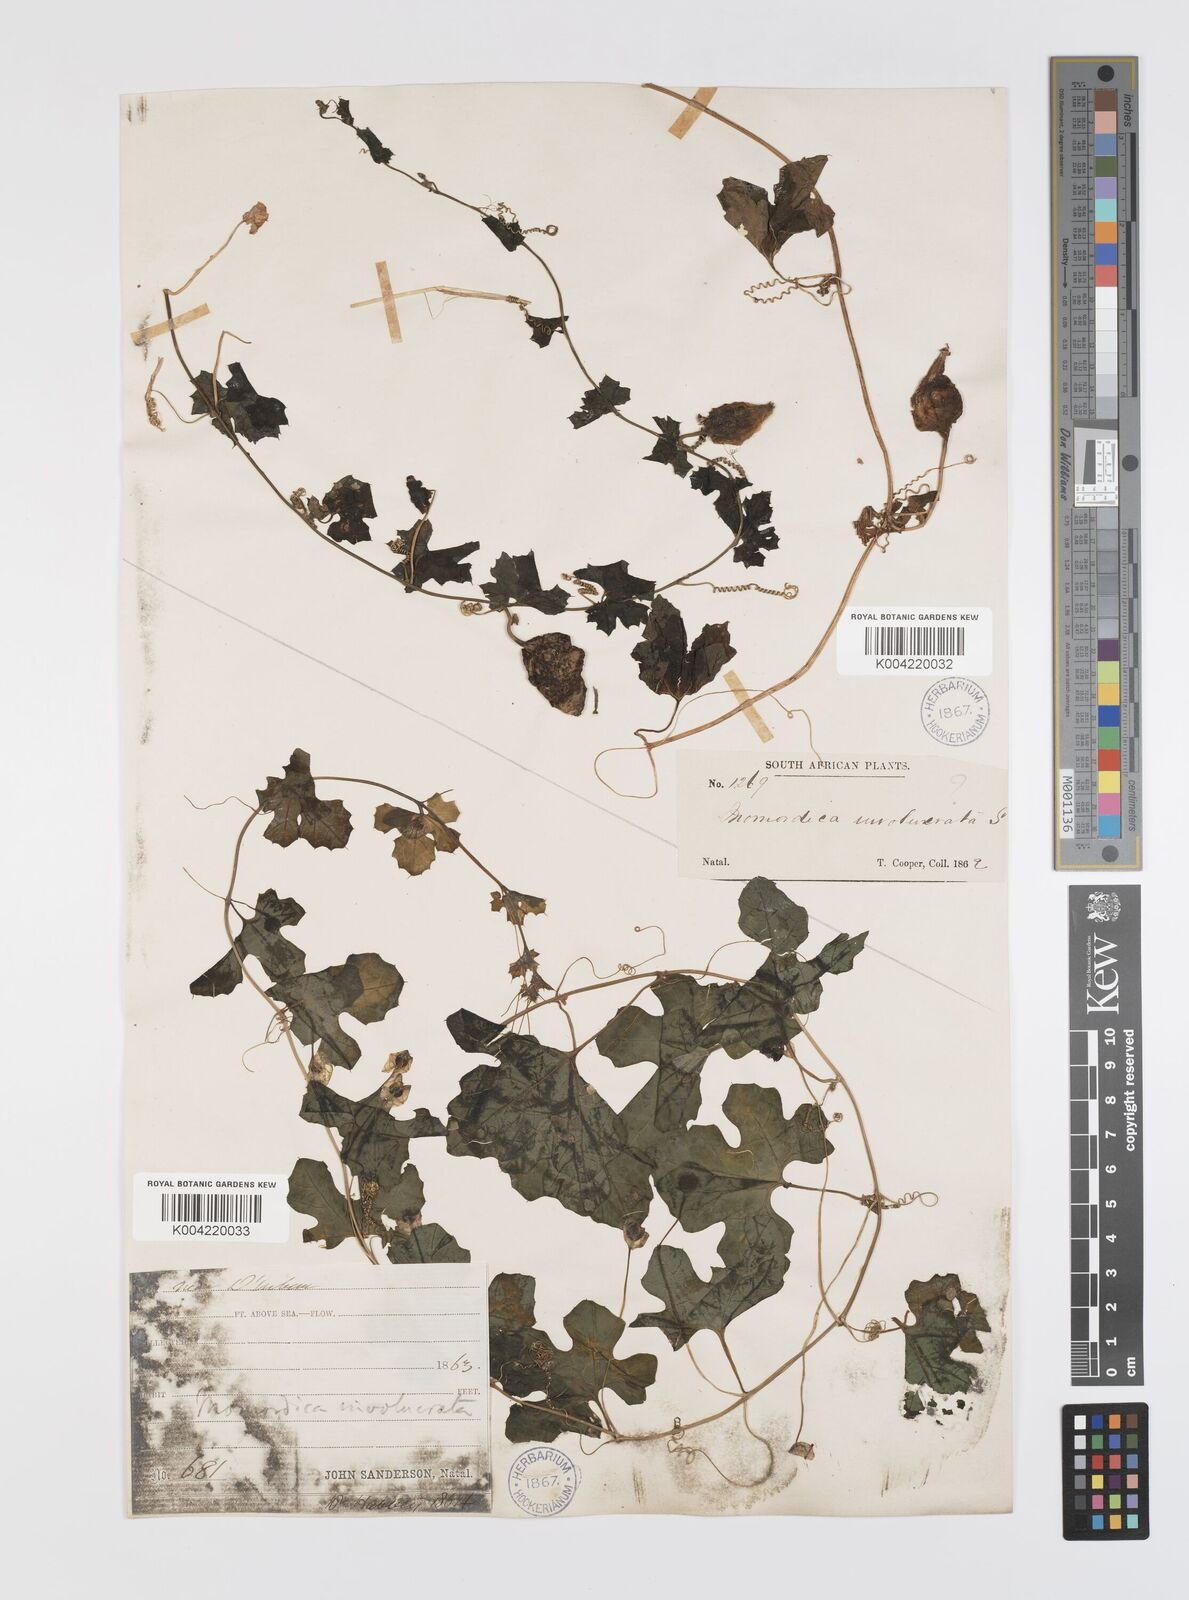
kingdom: Plantae
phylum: Tracheophyta
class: Magnoliopsida
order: Cucurbitales
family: Cucurbitaceae
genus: Momordica
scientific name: Momordica balsamina
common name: Southern balsampear
